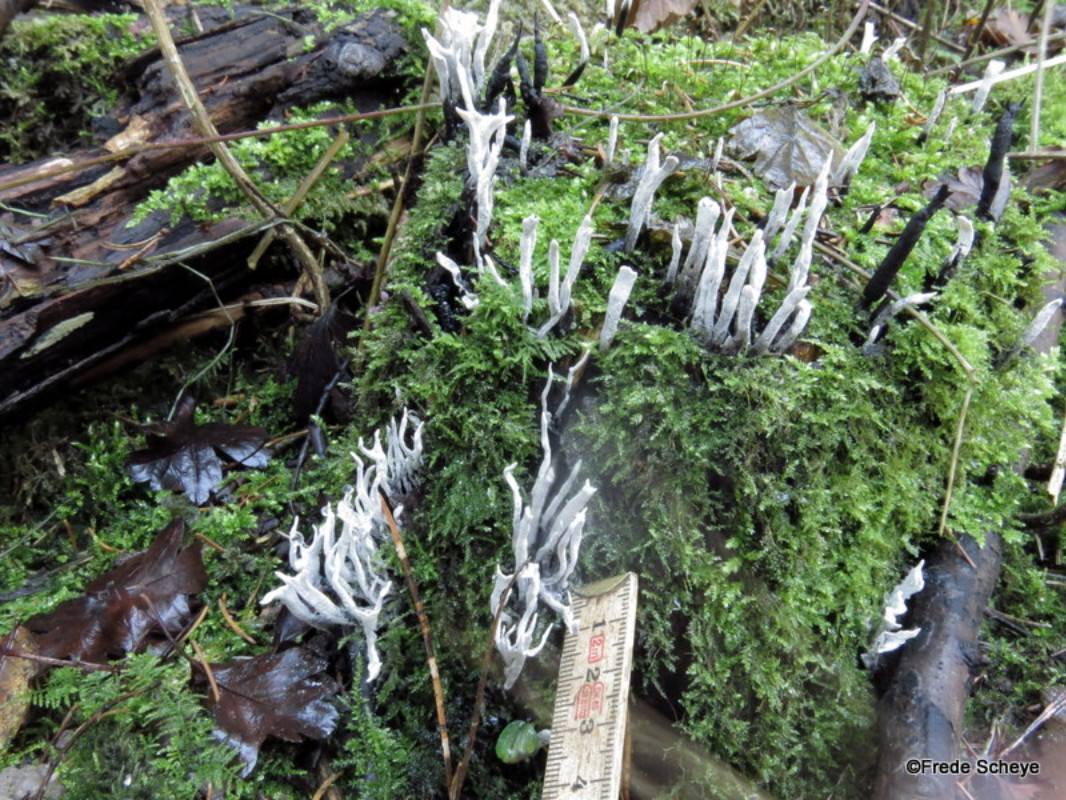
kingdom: Fungi
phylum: Ascomycota
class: Sordariomycetes
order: Xylariales
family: Xylariaceae
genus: Xylaria
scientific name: Xylaria hypoxylon
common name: grenet stødsvamp
